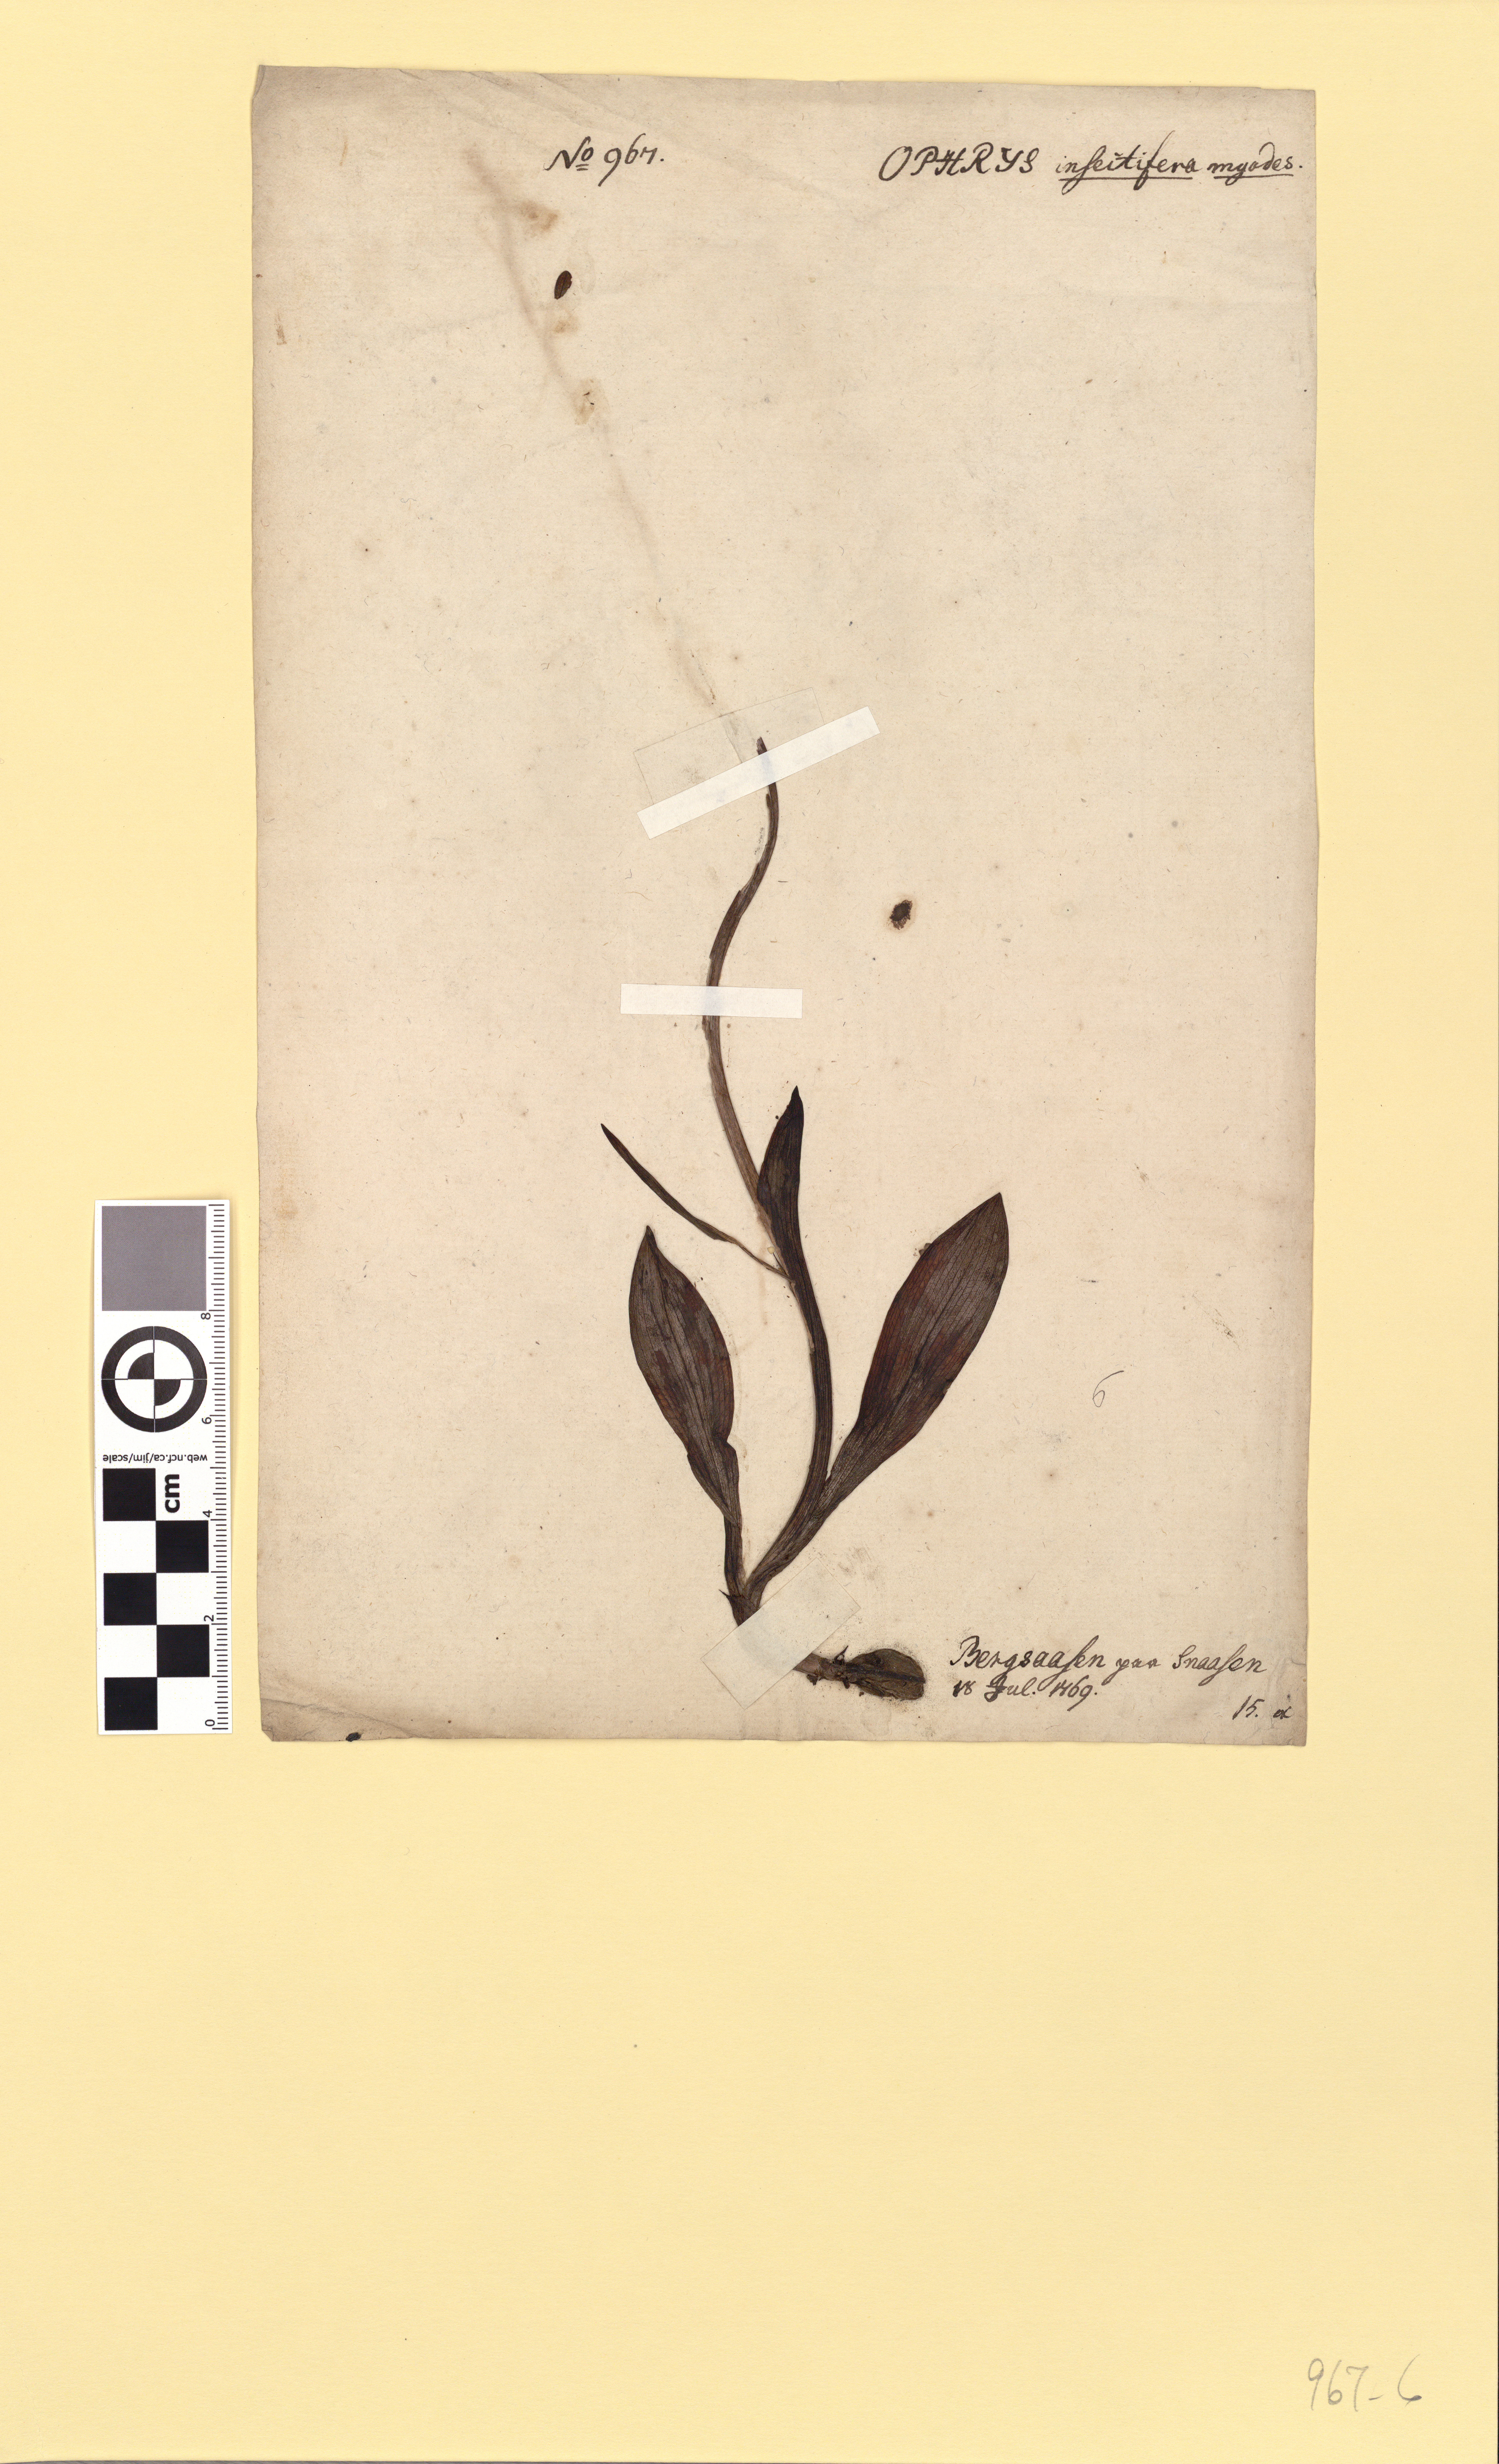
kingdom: Plantae
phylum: Tracheophyta
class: Liliopsida
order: Asparagales
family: Orchidaceae
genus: Ophrys
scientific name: Ophrys insectifera
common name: Fly orchid
